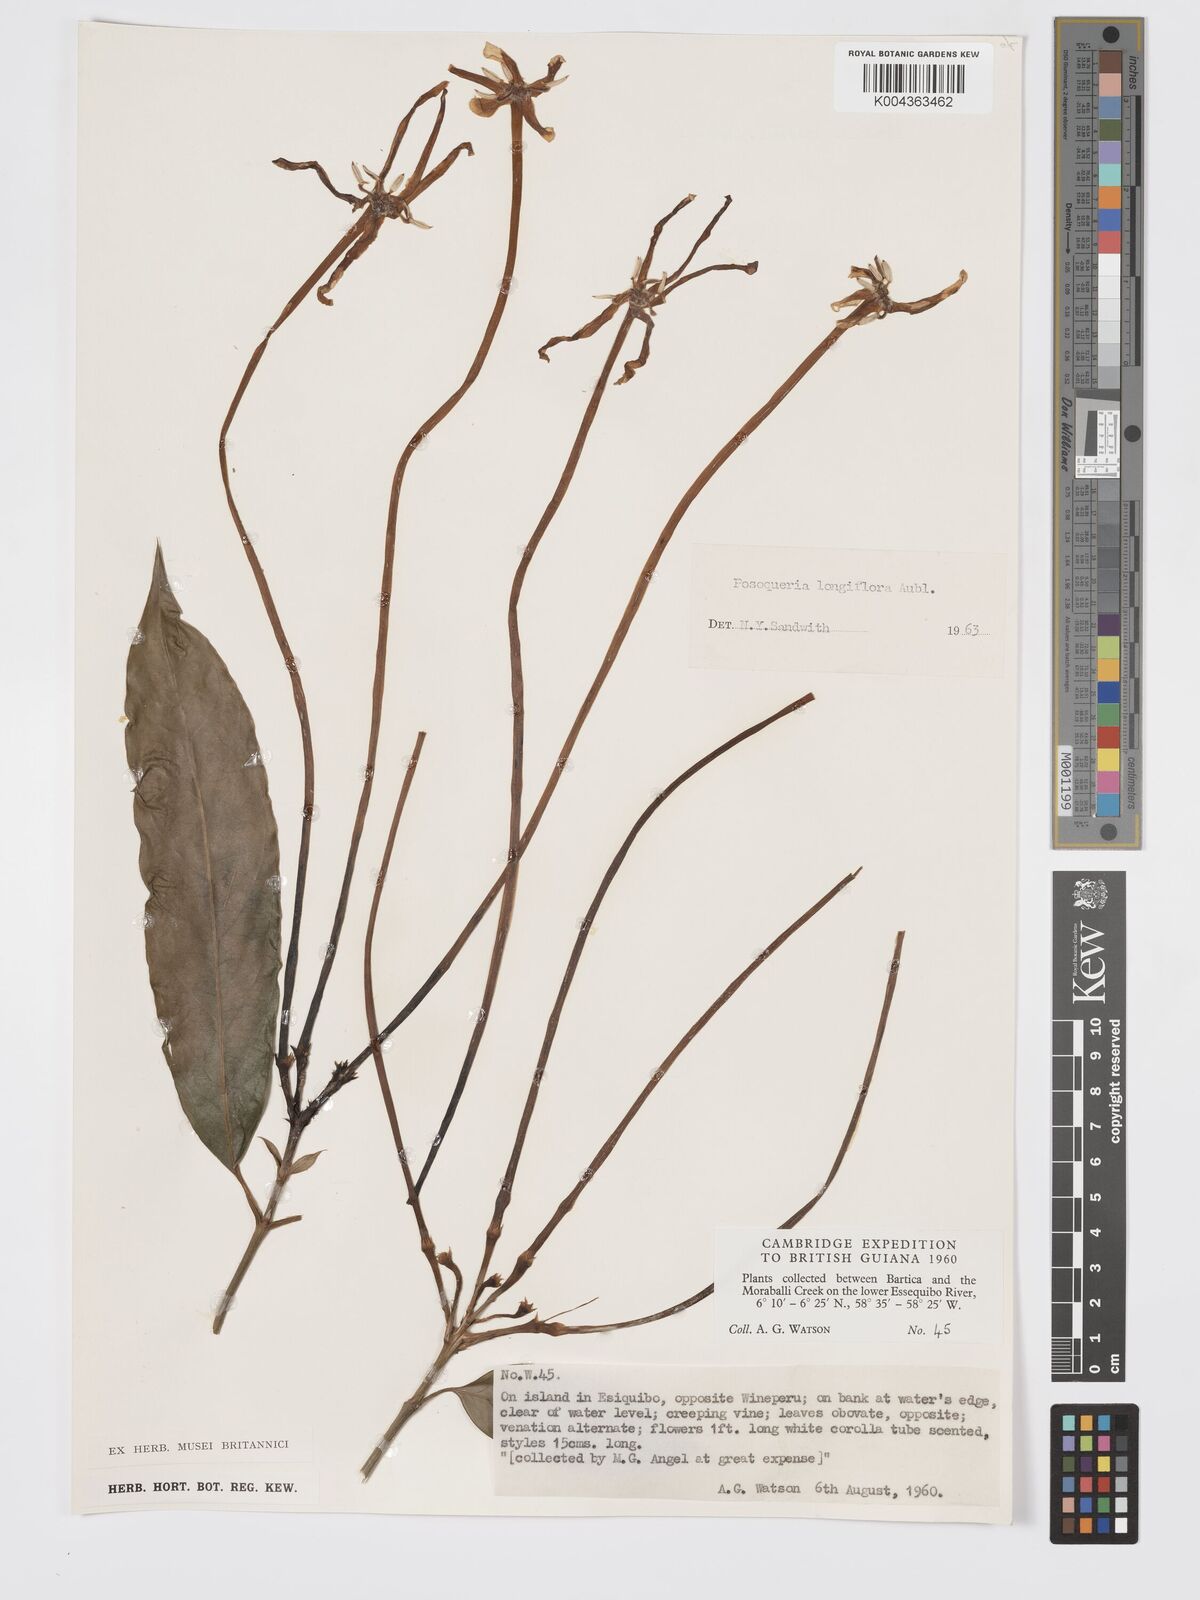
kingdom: Plantae
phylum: Tracheophyta
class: Magnoliopsida
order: Gentianales
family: Rubiaceae
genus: Posoqueria
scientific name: Posoqueria
